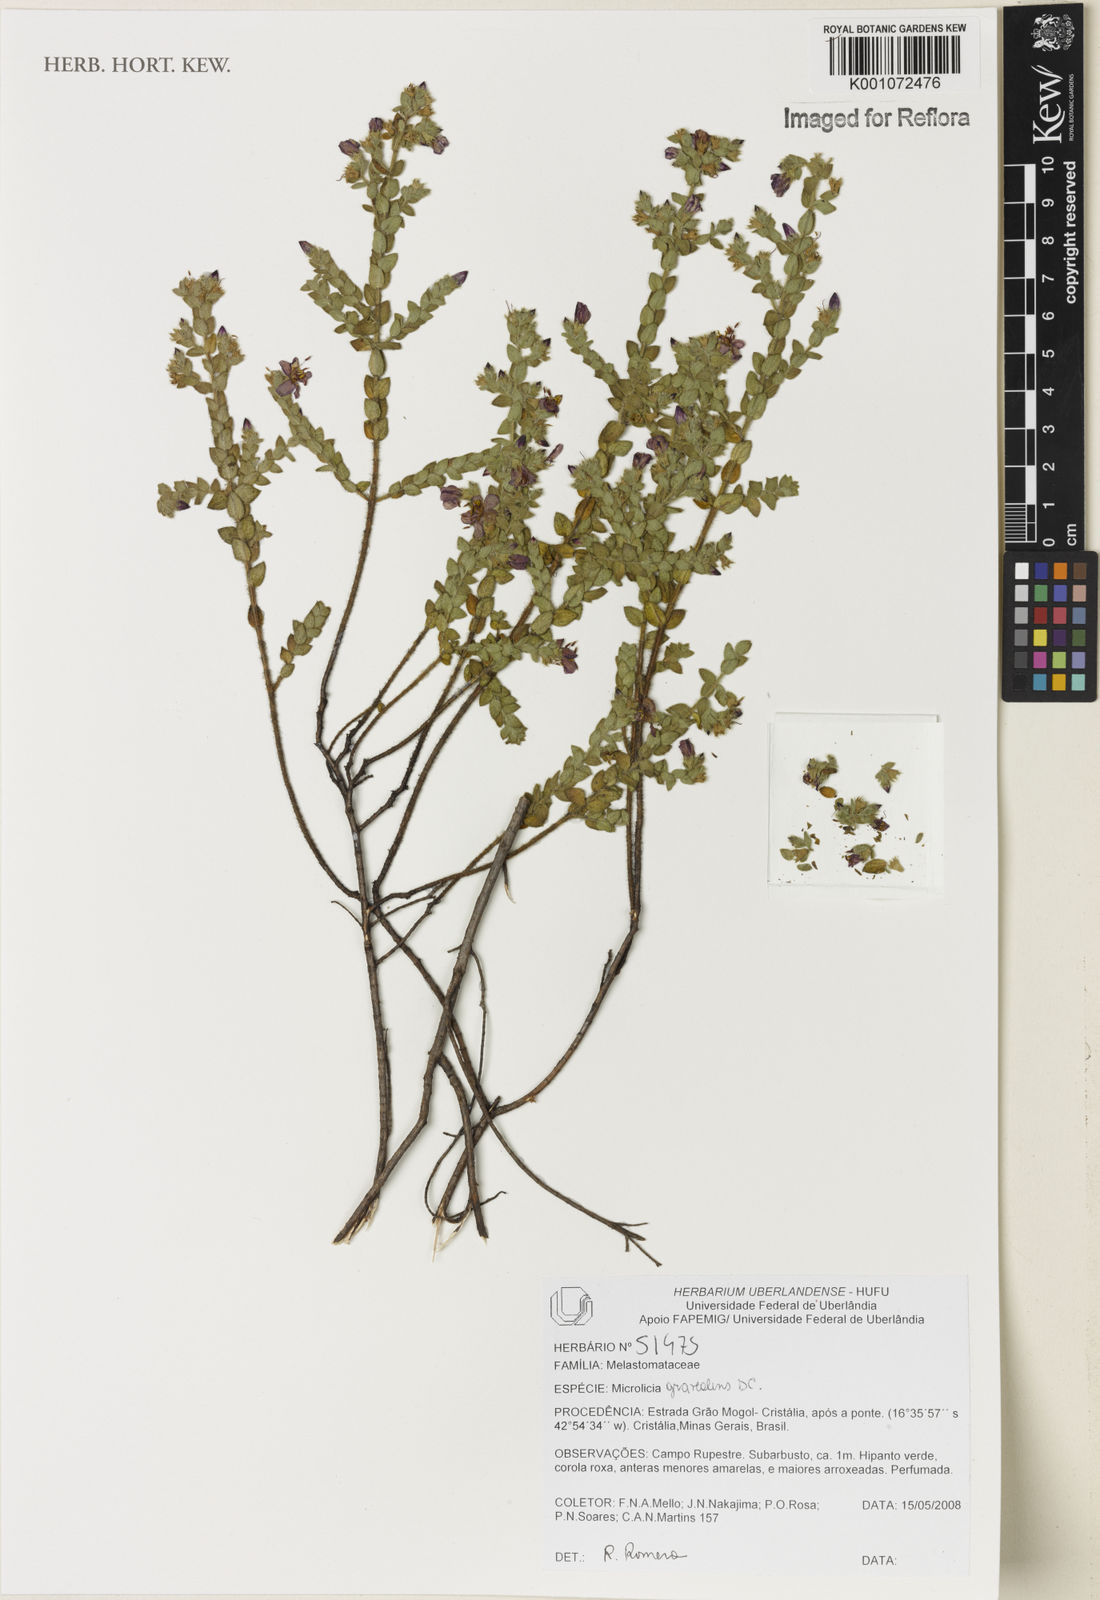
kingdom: Plantae
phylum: Tracheophyta
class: Magnoliopsida
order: Myrtales
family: Melastomataceae
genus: Microlicia
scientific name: Microlicia graveolens
